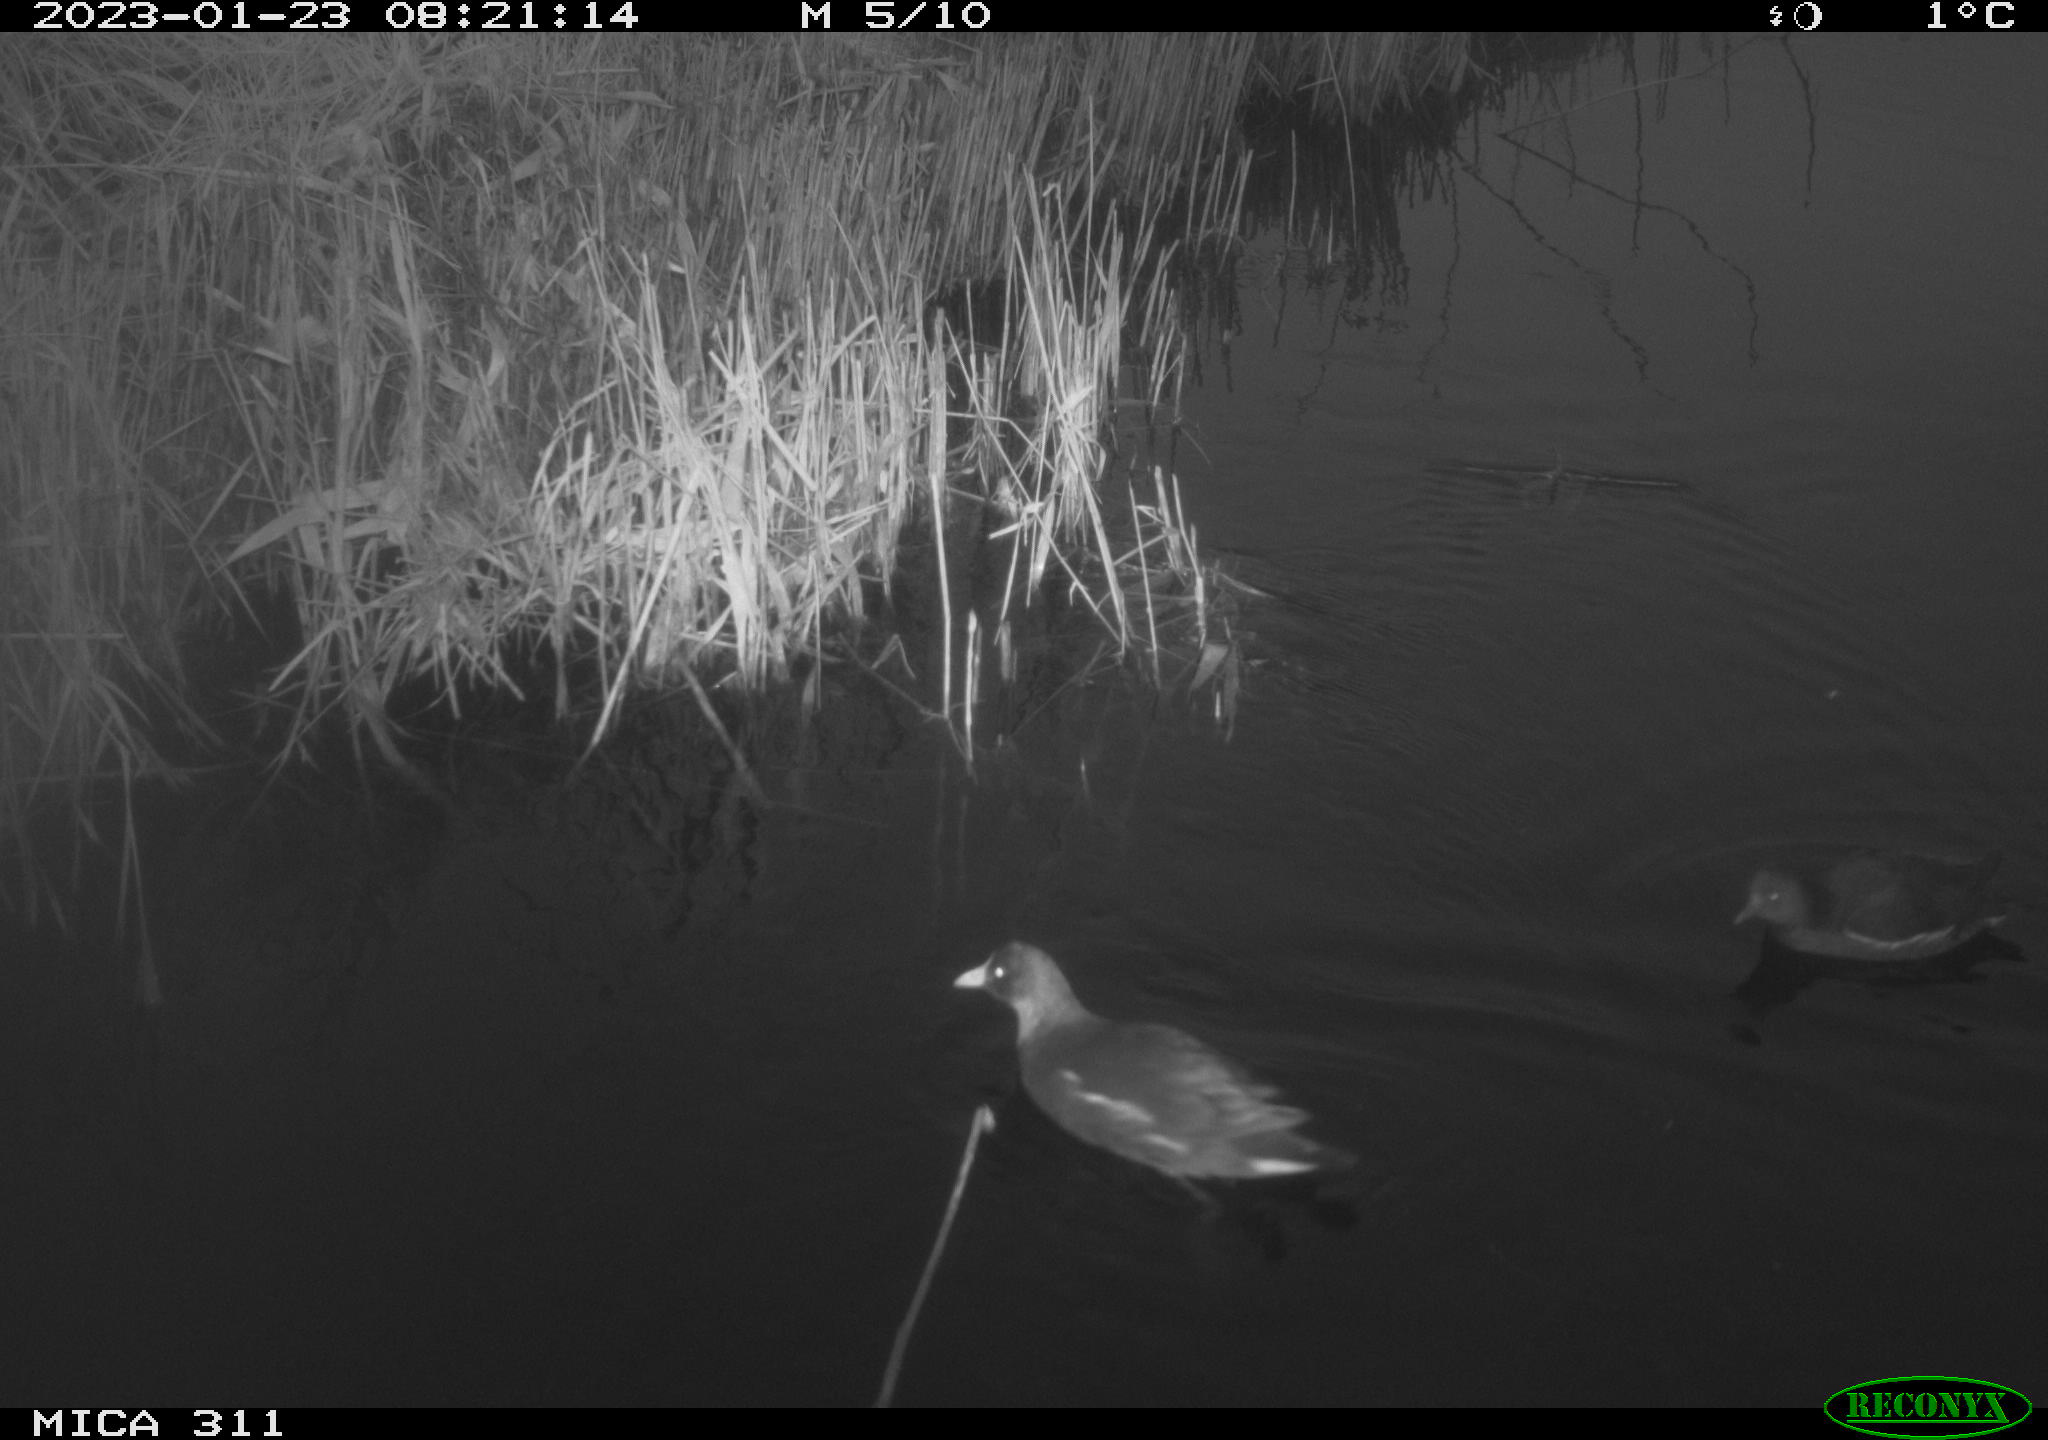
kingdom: Animalia
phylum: Chordata
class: Aves
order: Gruiformes
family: Rallidae
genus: Gallinula
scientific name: Gallinula chloropus
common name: Common moorhen
